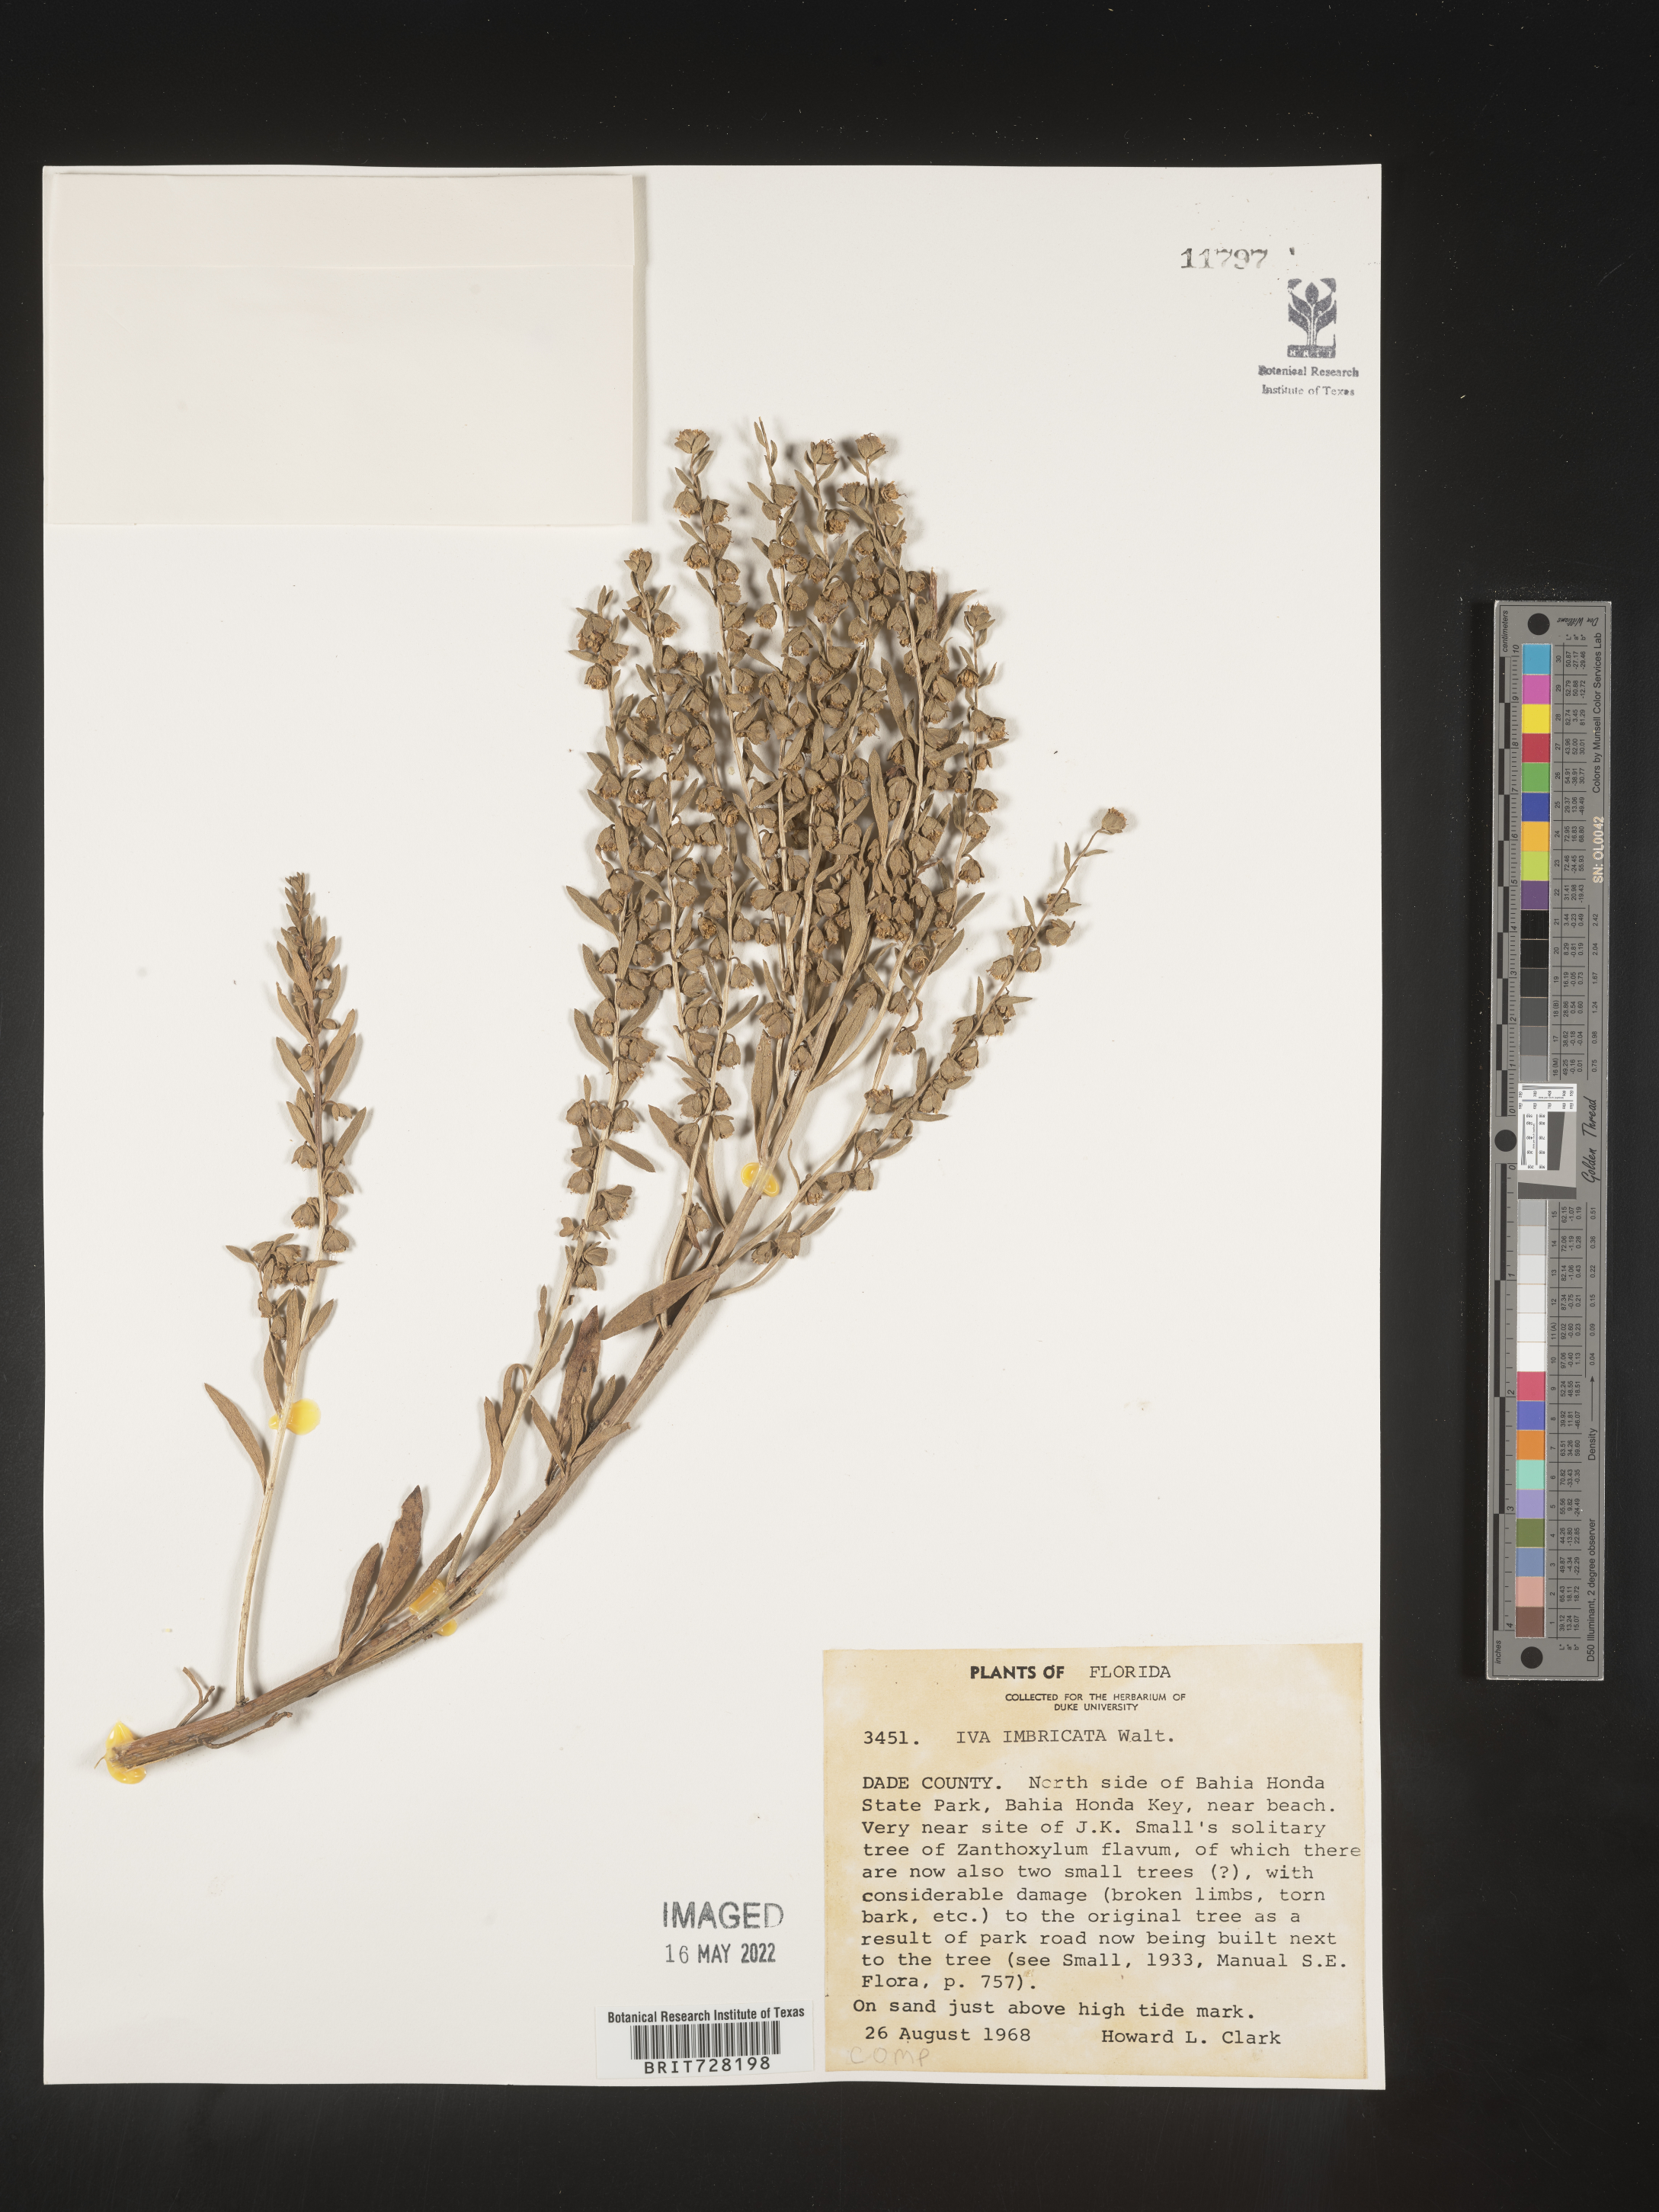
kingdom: Plantae
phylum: Tracheophyta
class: Magnoliopsida
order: Asterales
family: Asteraceae
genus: Iva
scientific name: Iva imbricata
